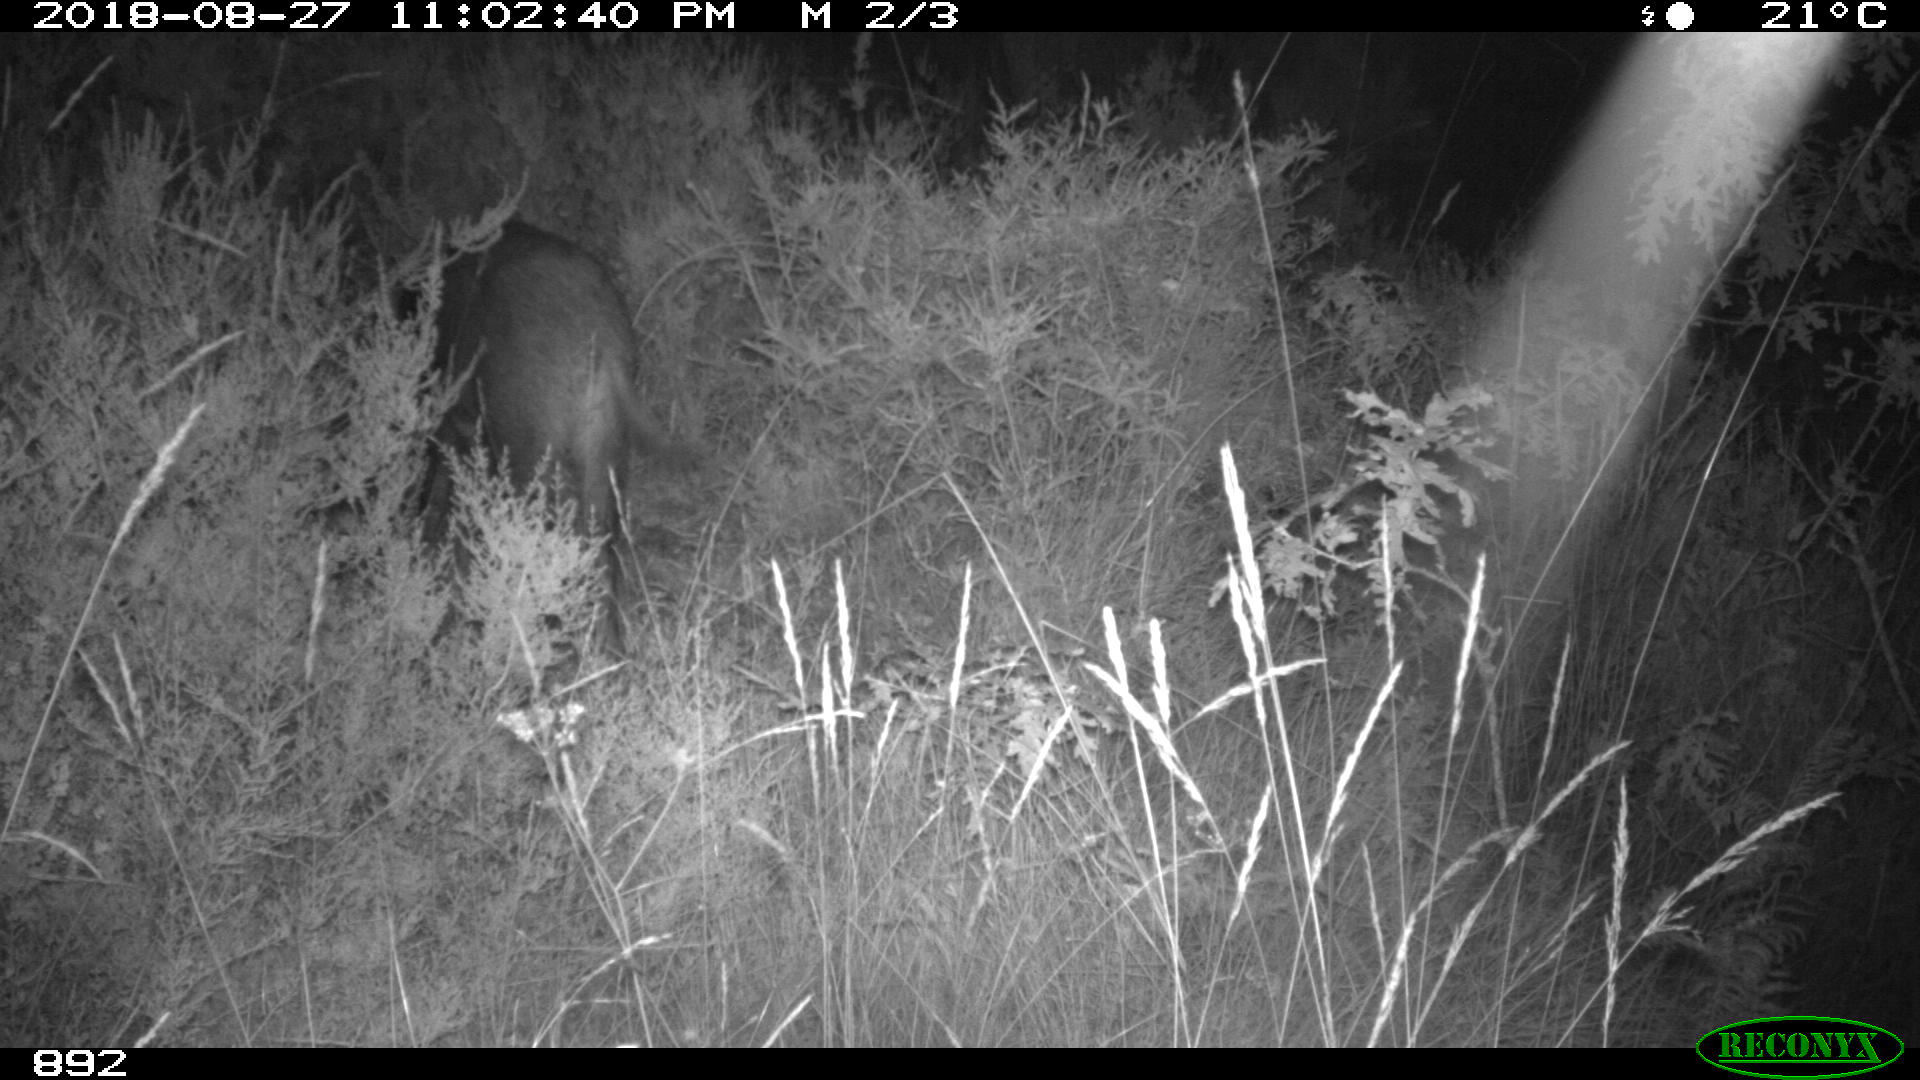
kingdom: Animalia
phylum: Chordata
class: Mammalia
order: Artiodactyla
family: Suidae
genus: Sus
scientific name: Sus scrofa
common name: Wild boar
